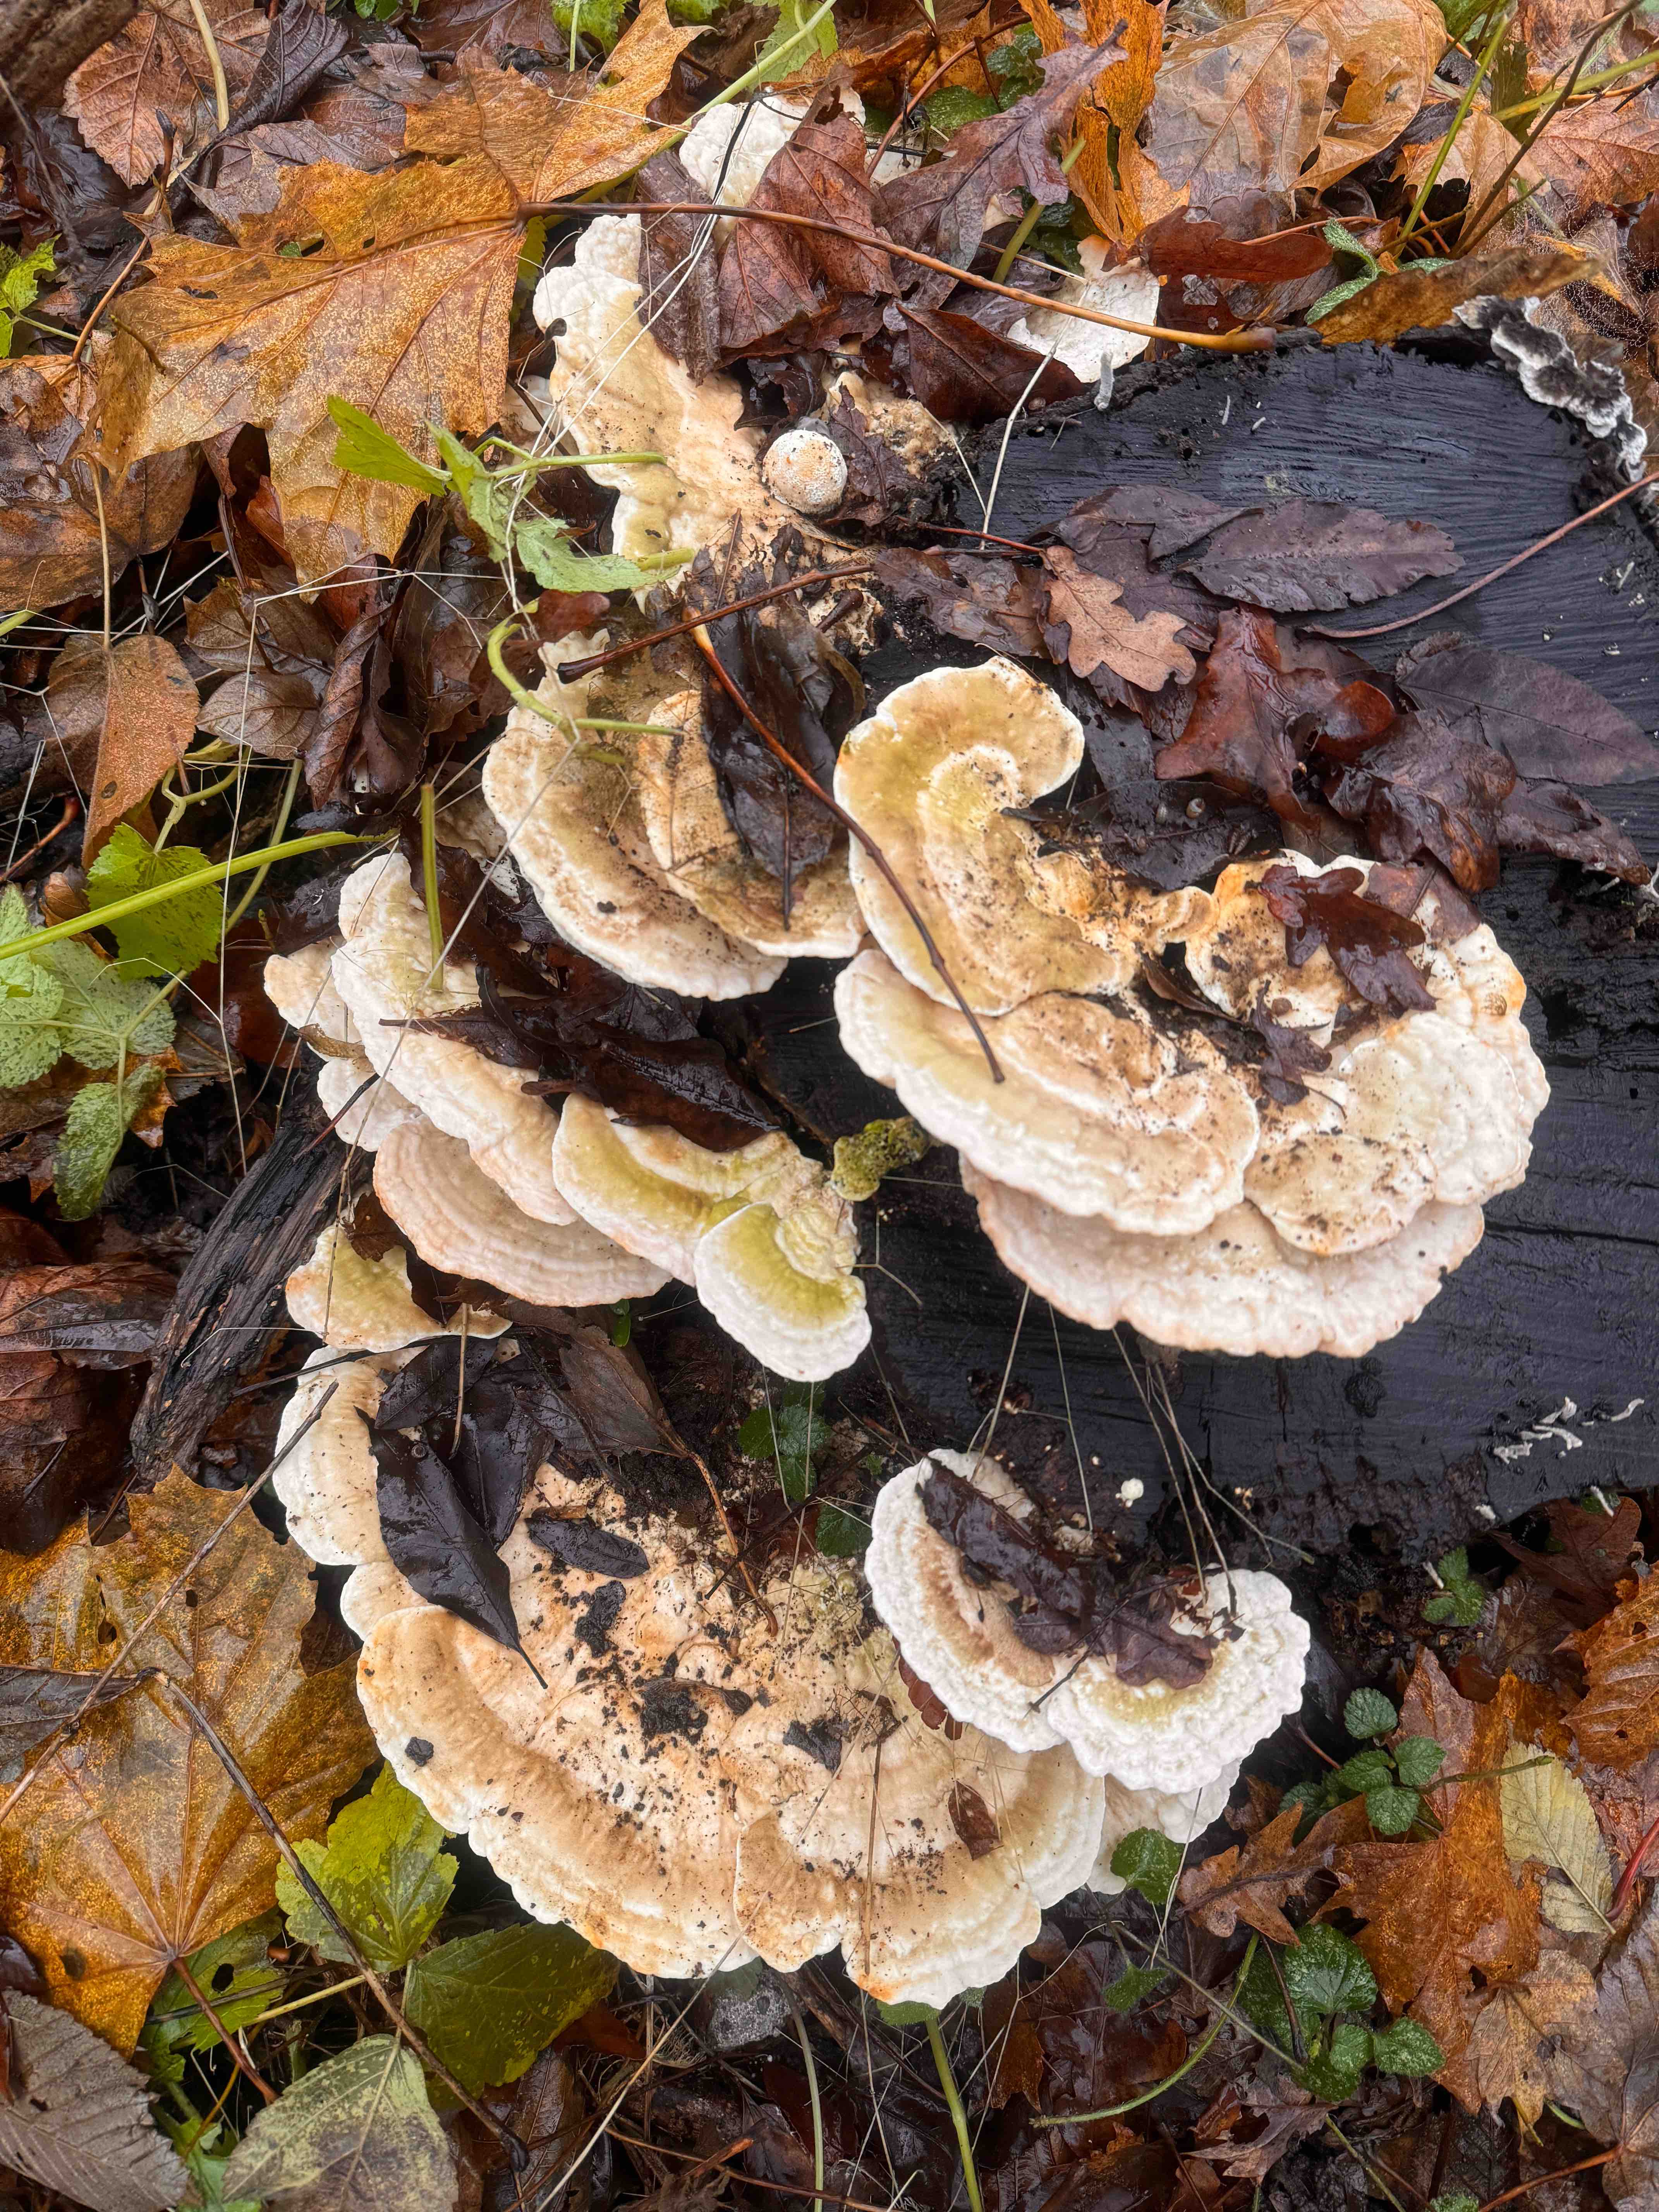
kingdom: Fungi
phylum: Basidiomycota
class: Agaricomycetes
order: Polyporales
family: Polyporaceae
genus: Trametes
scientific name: Trametes gibbosa
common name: puklet læderporesvamp
